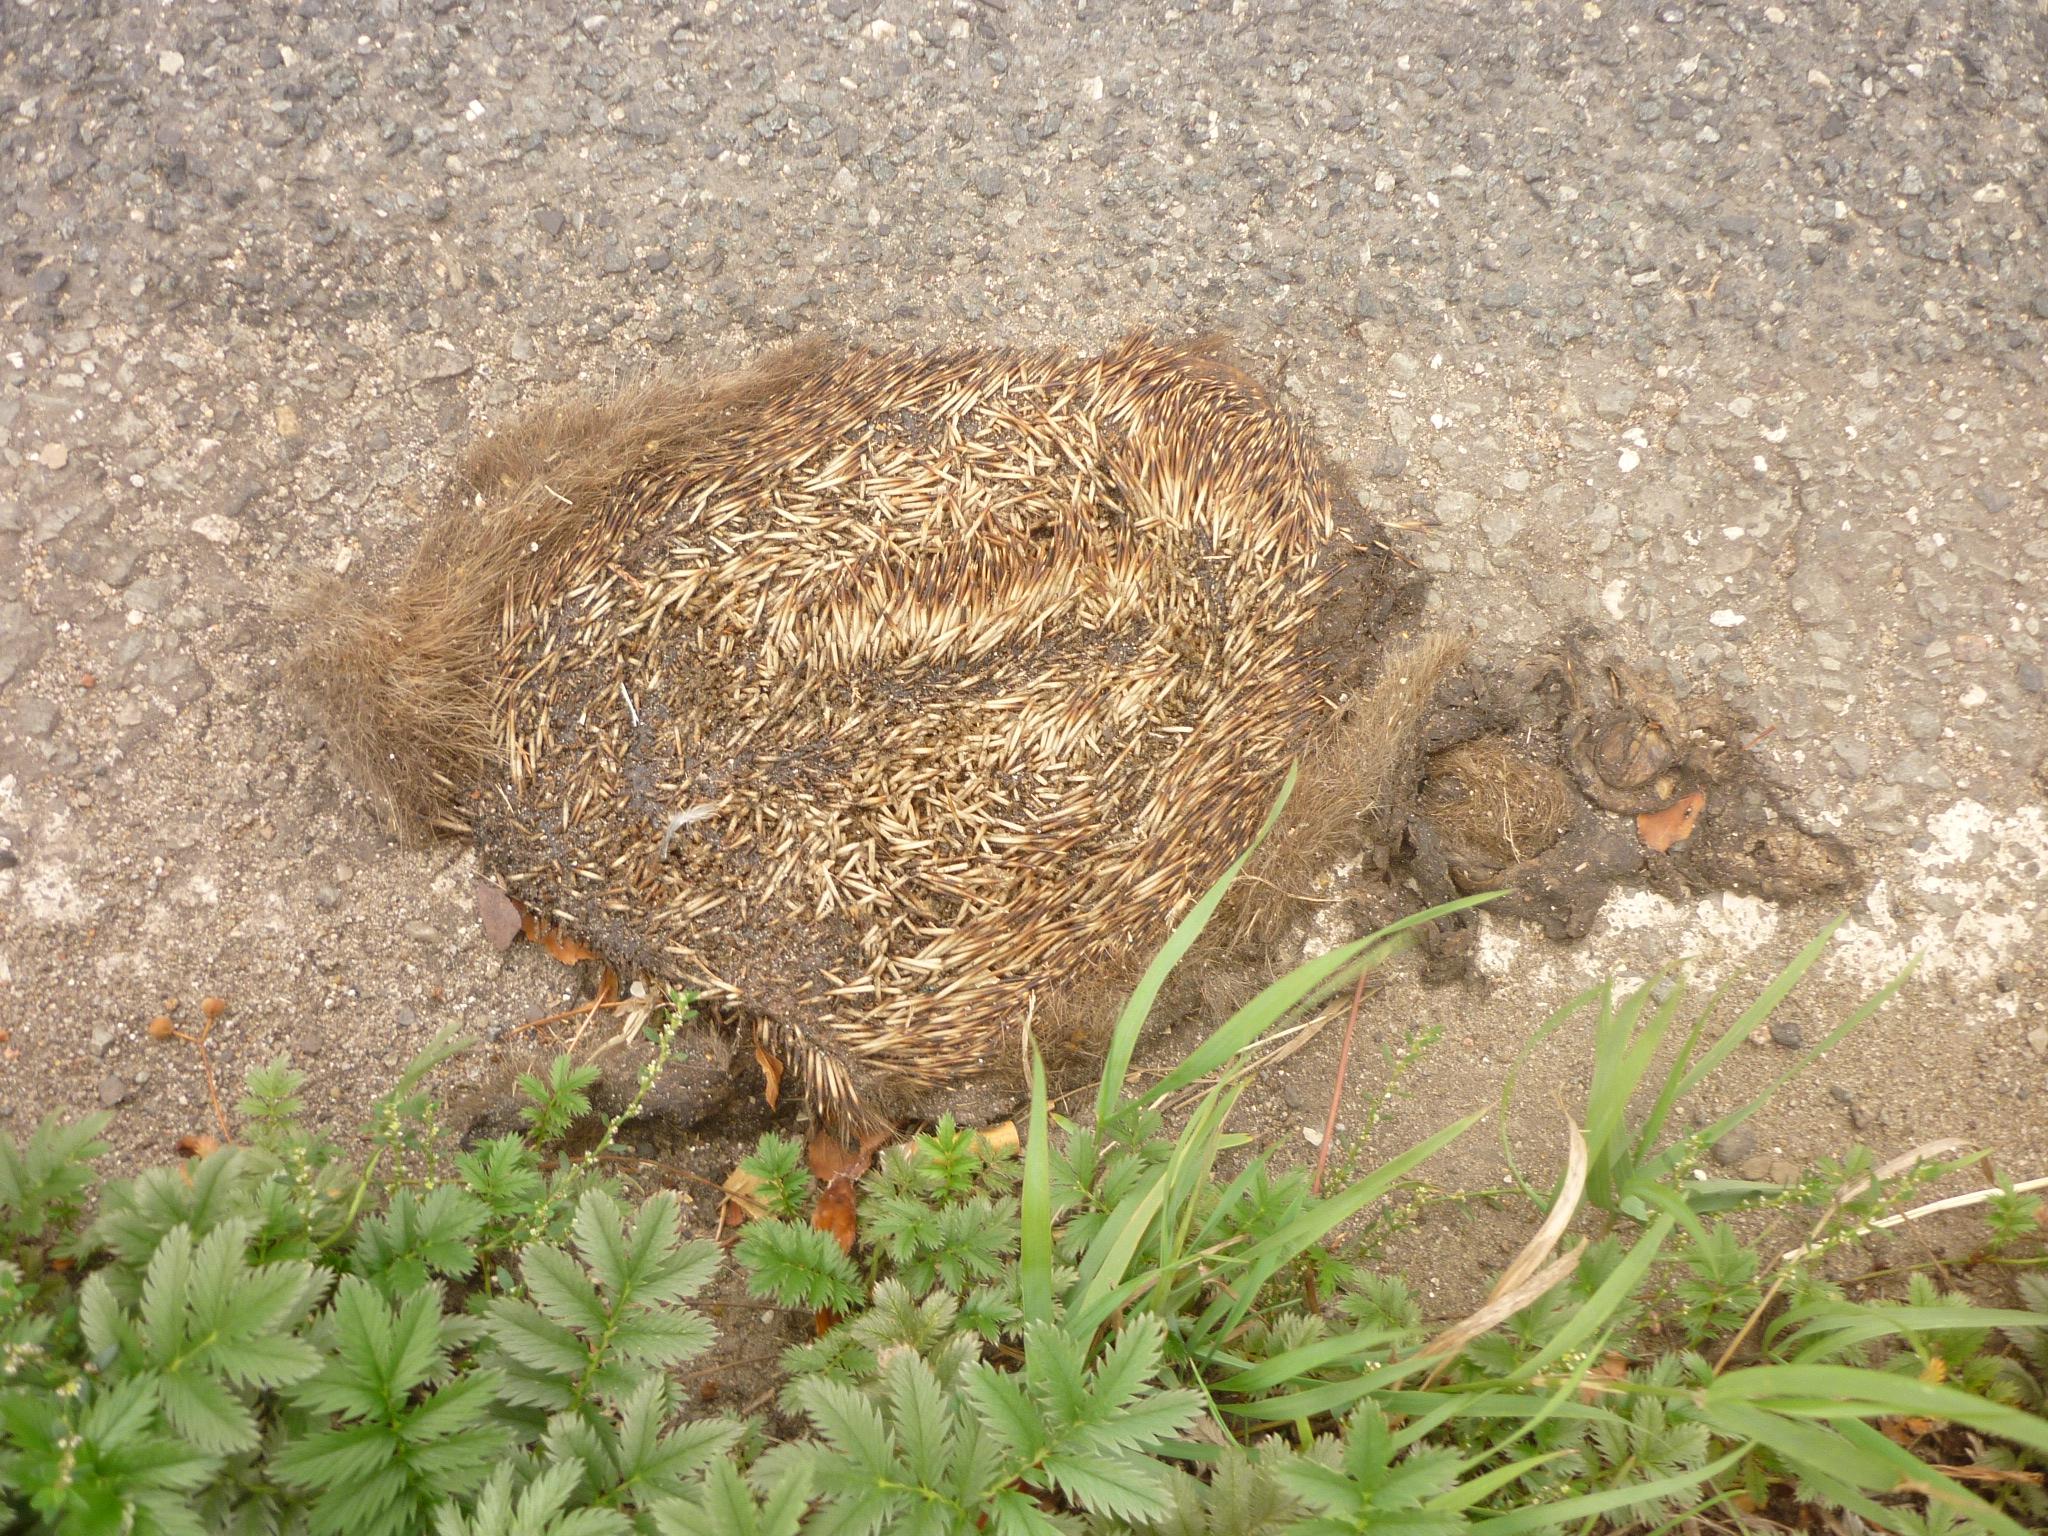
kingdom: Animalia
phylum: Chordata
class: Mammalia
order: Erinaceomorpha
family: Erinaceidae
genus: Erinaceus
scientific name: Erinaceus
